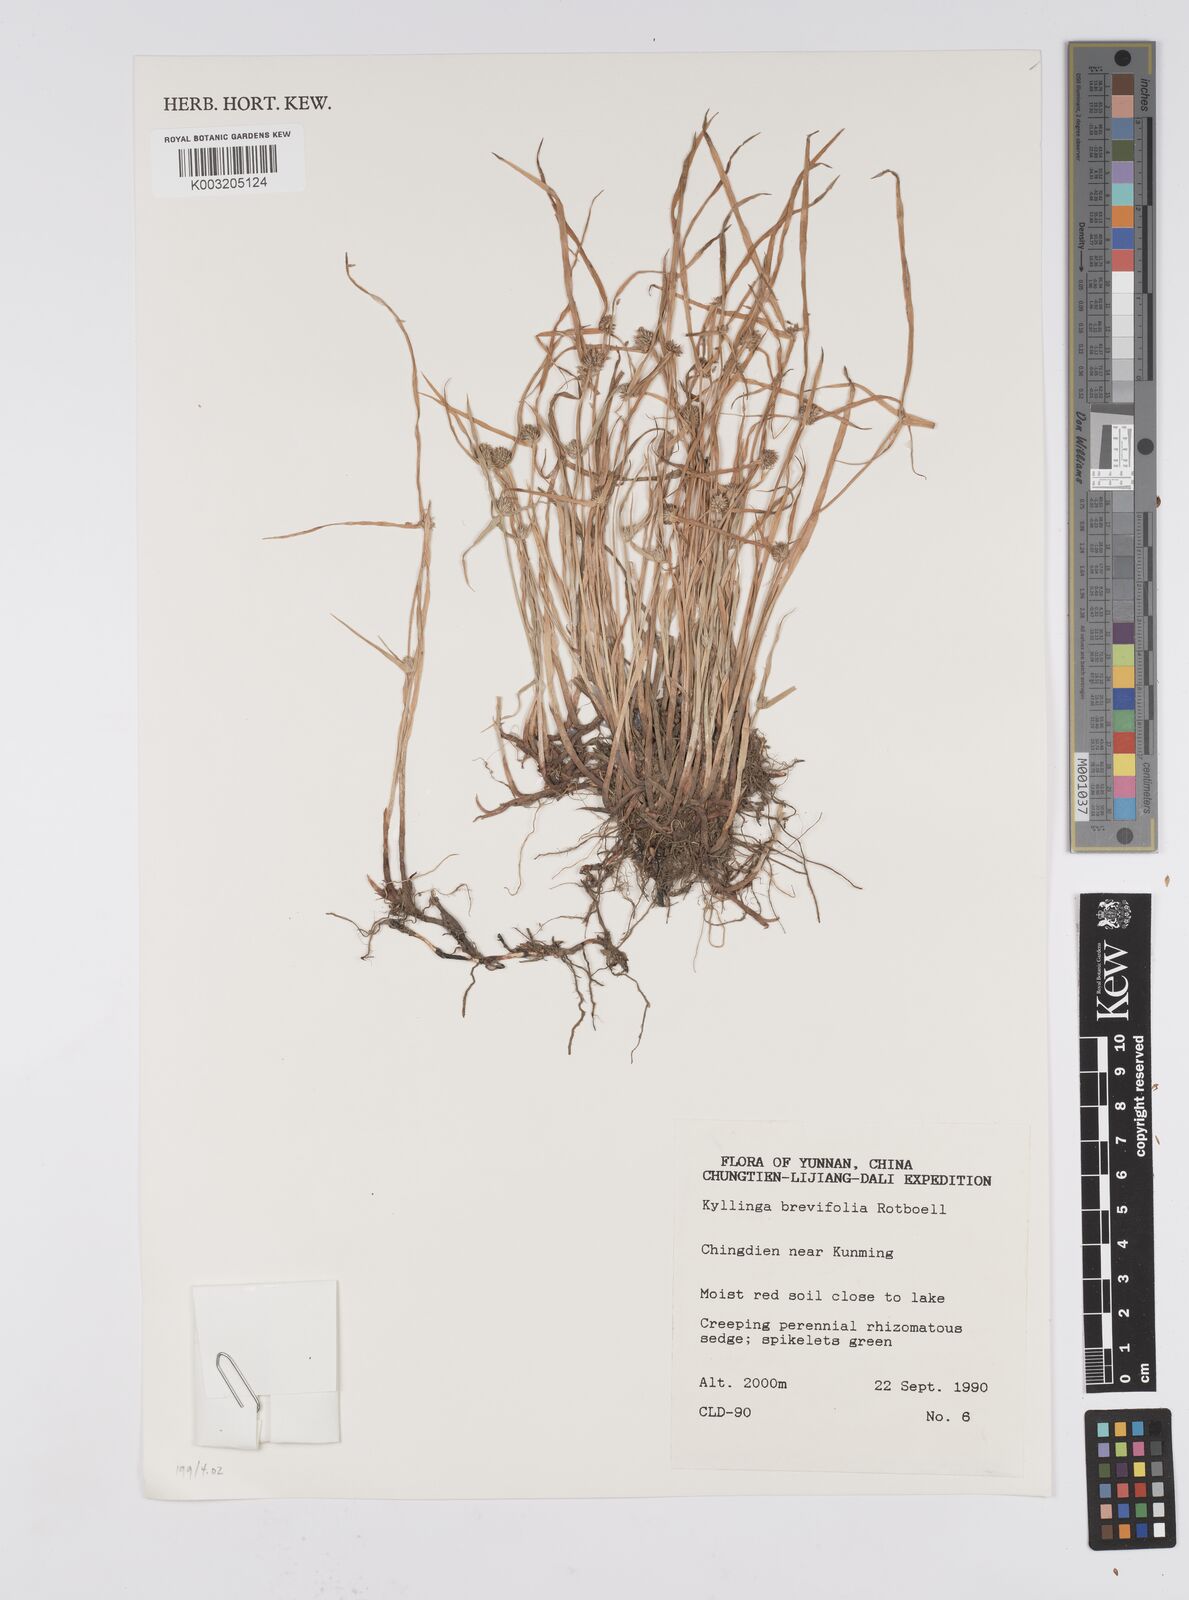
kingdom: Plantae
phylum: Tracheophyta
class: Liliopsida
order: Poales
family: Cyperaceae
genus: Cyperus
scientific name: Cyperus brevifolius
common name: Globe kyllinga
